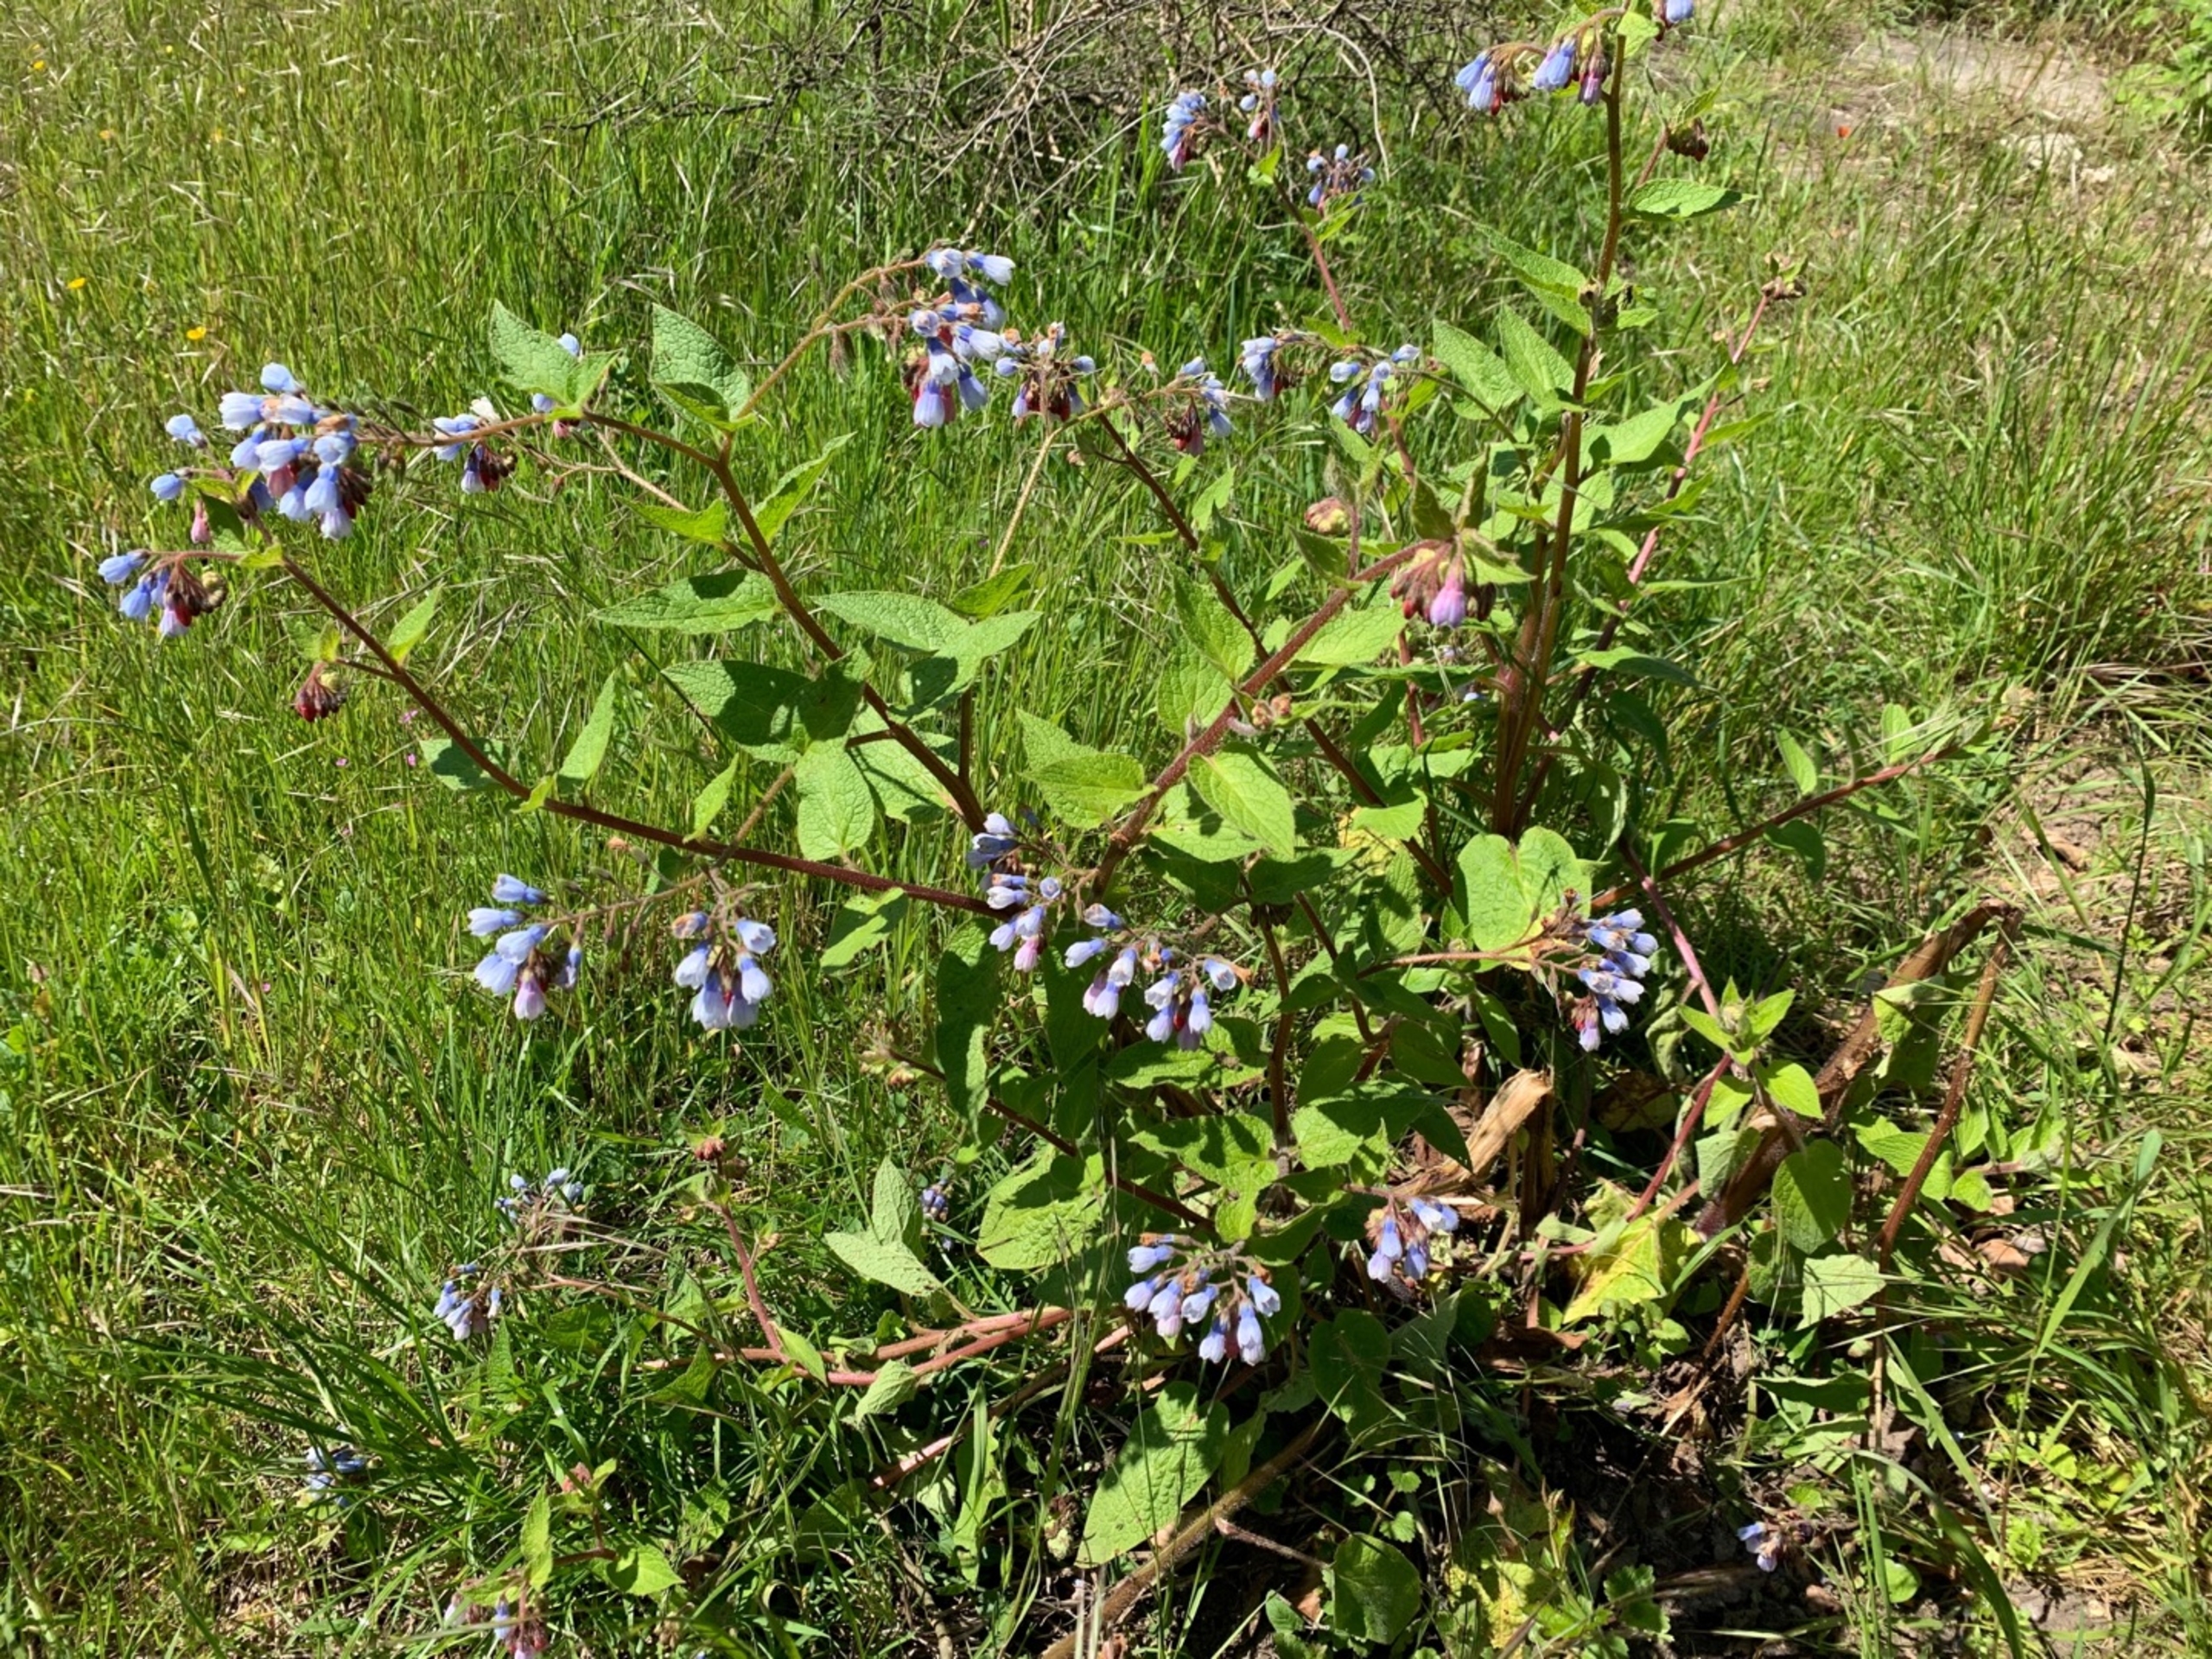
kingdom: Plantae
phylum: Tracheophyta
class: Magnoliopsida
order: Boraginales
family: Boraginaceae
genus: Symphytum
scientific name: Symphytum hidcotense
